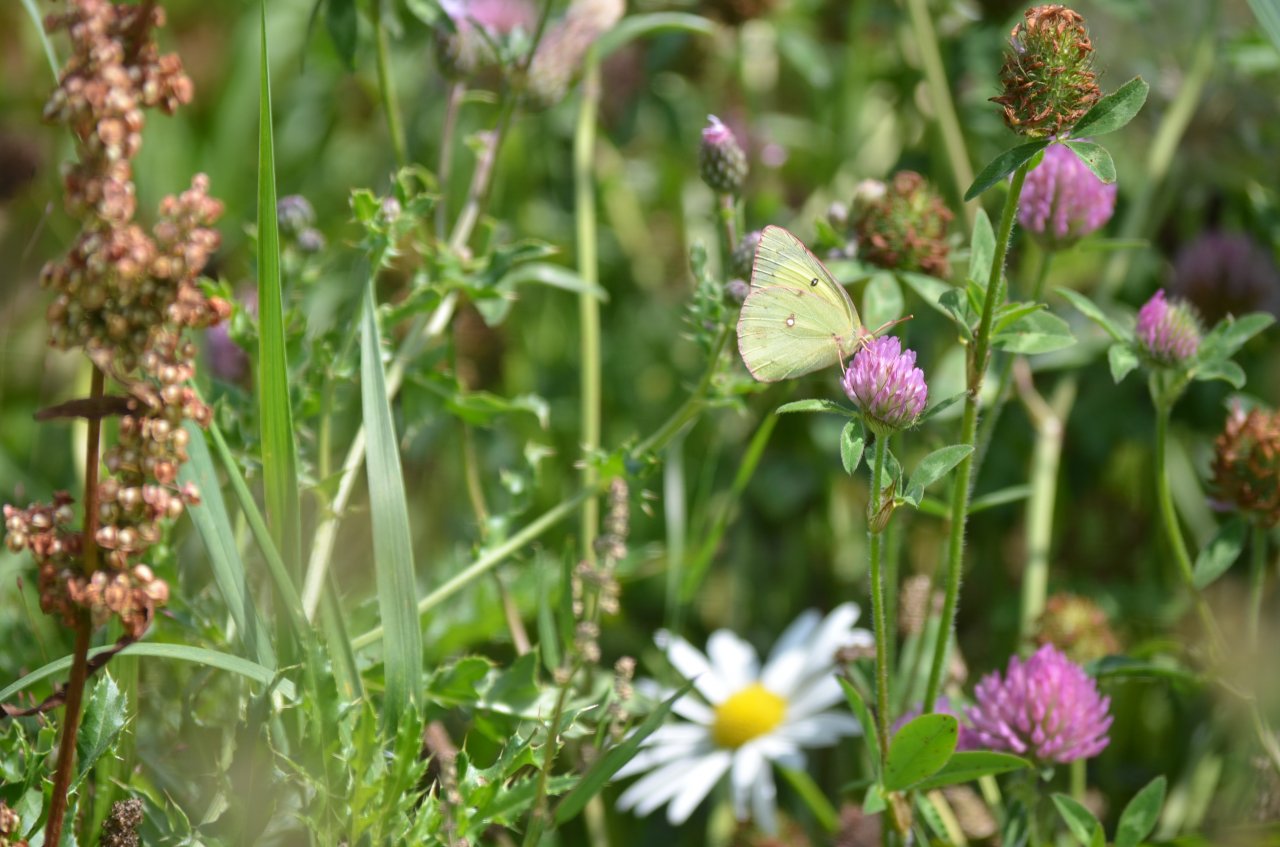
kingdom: Animalia
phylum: Arthropoda
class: Insecta
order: Lepidoptera
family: Pieridae
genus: Colias
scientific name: Colias philodice
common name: Clouded Sulphur
